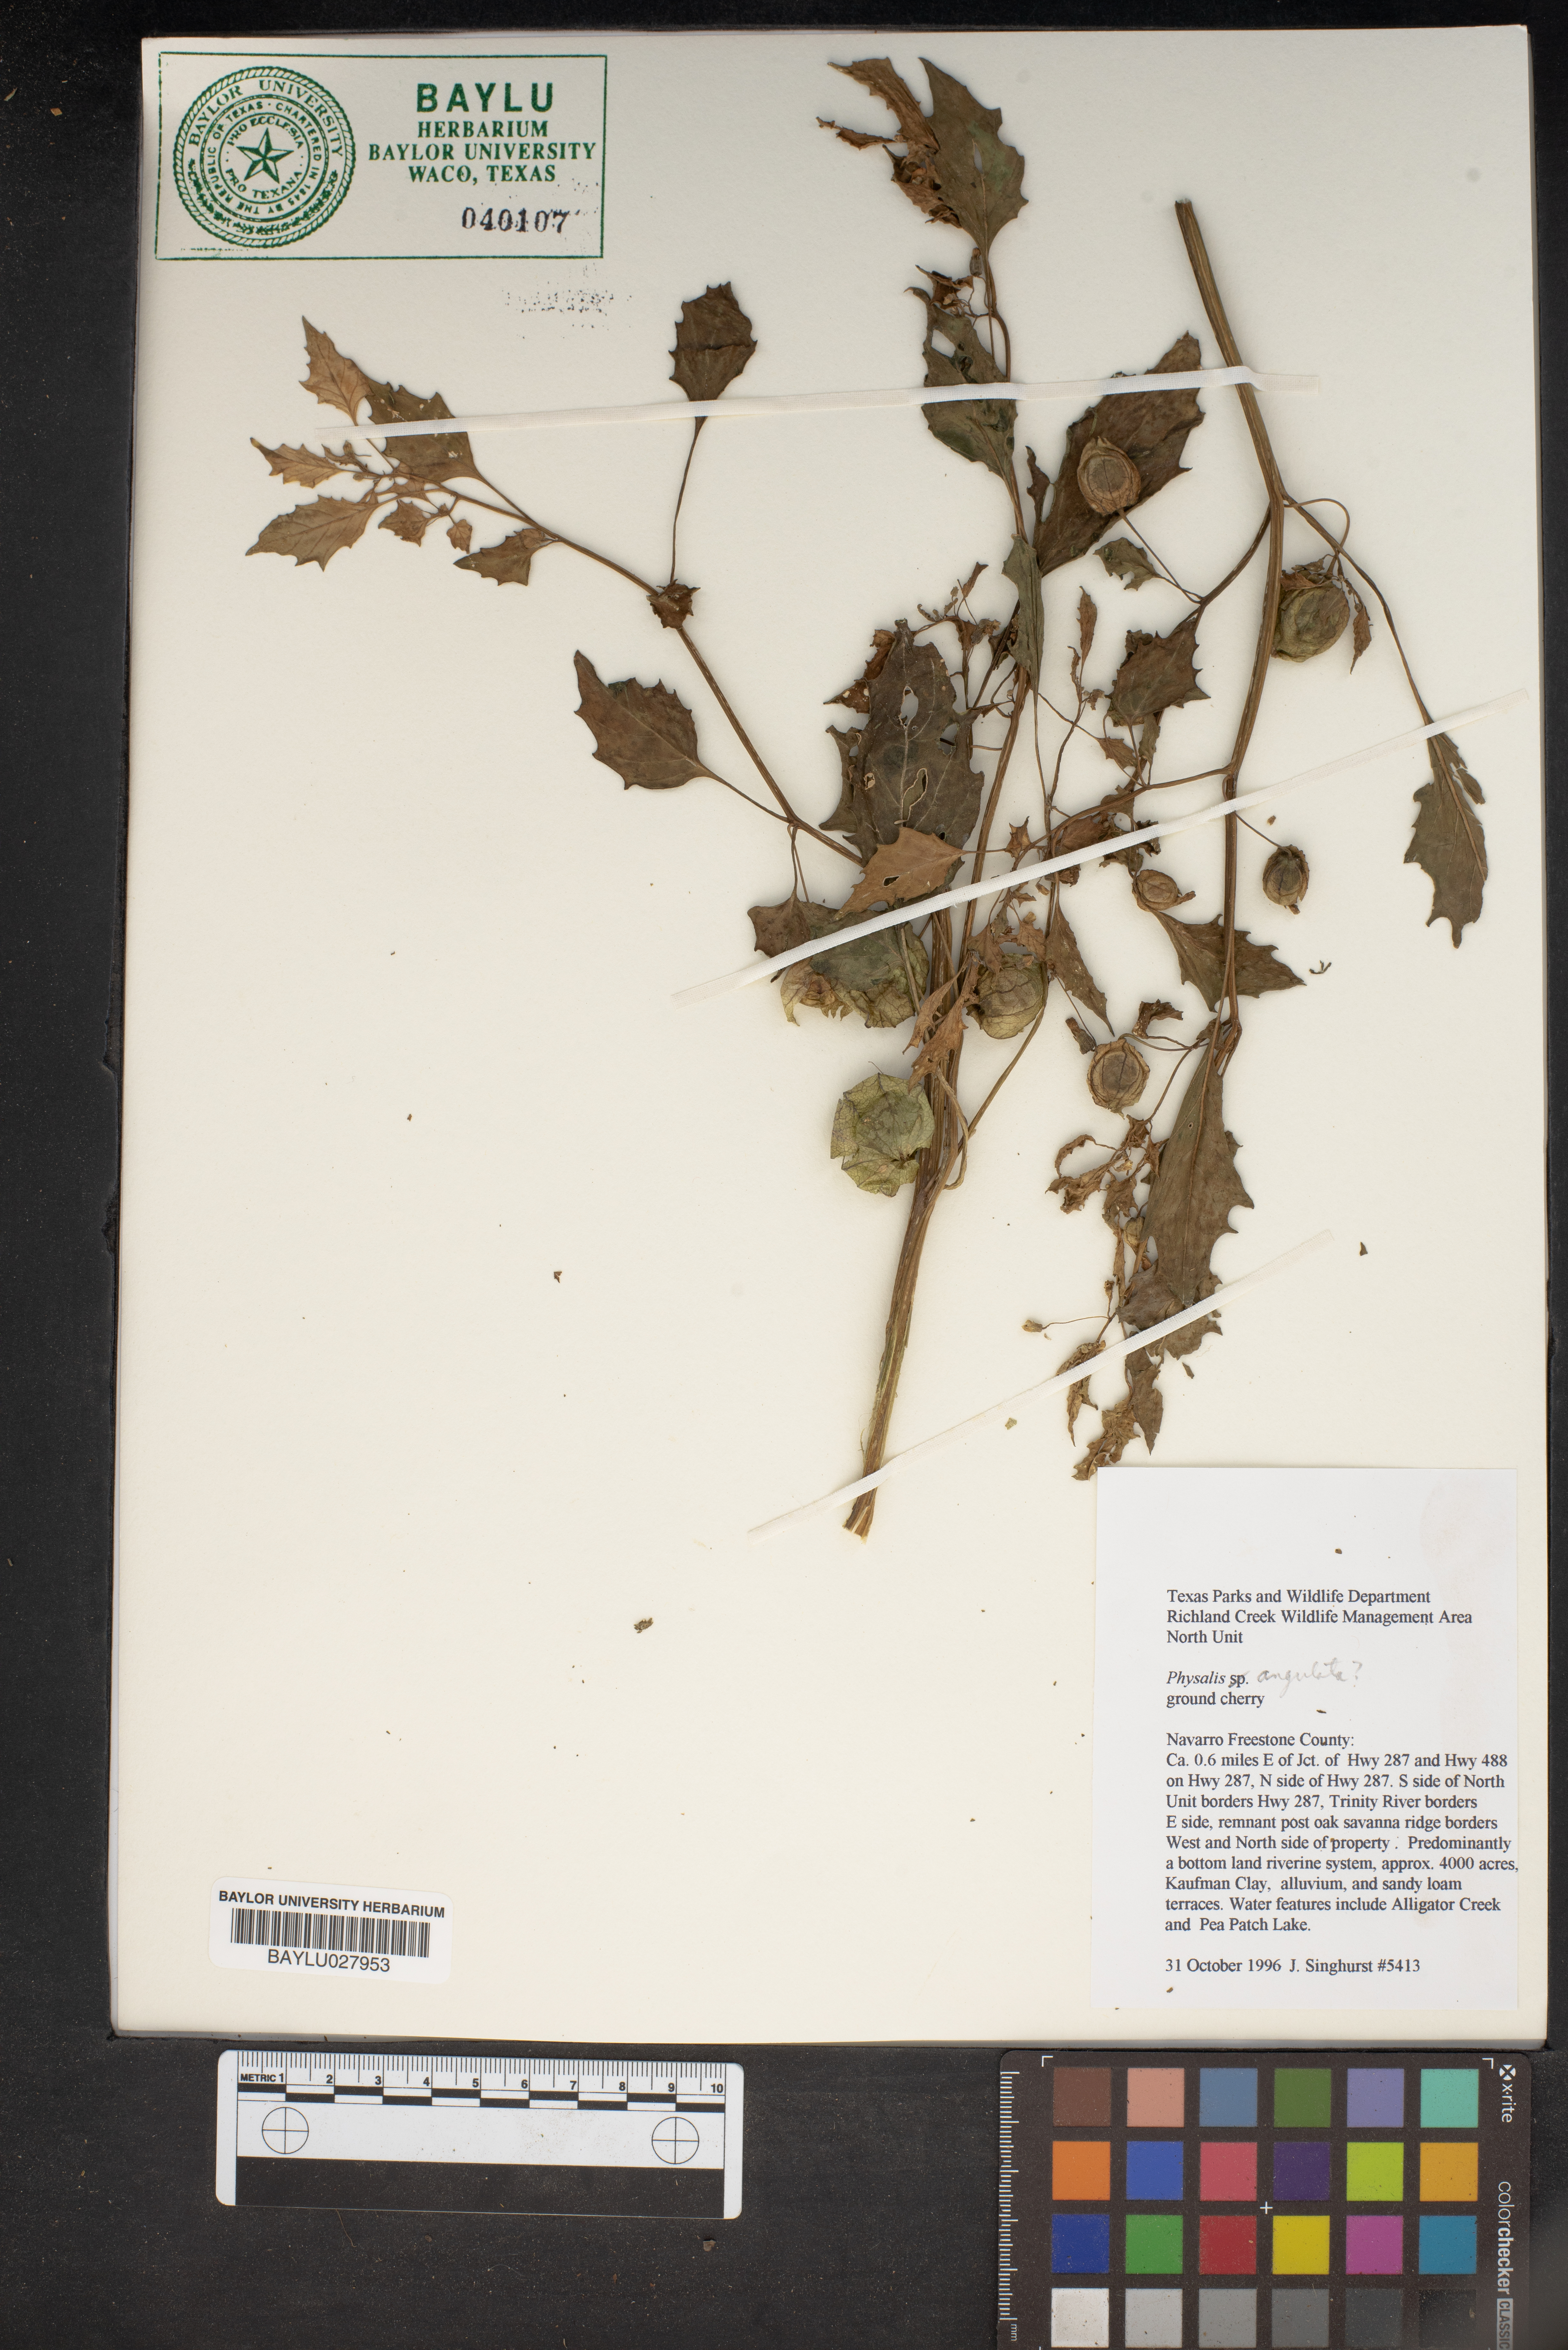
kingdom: Plantae
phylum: Tracheophyta
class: Magnoliopsida
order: Solanales
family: Solanaceae
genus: Physalis
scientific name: Physalis angulata
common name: Angular winter-cherry
